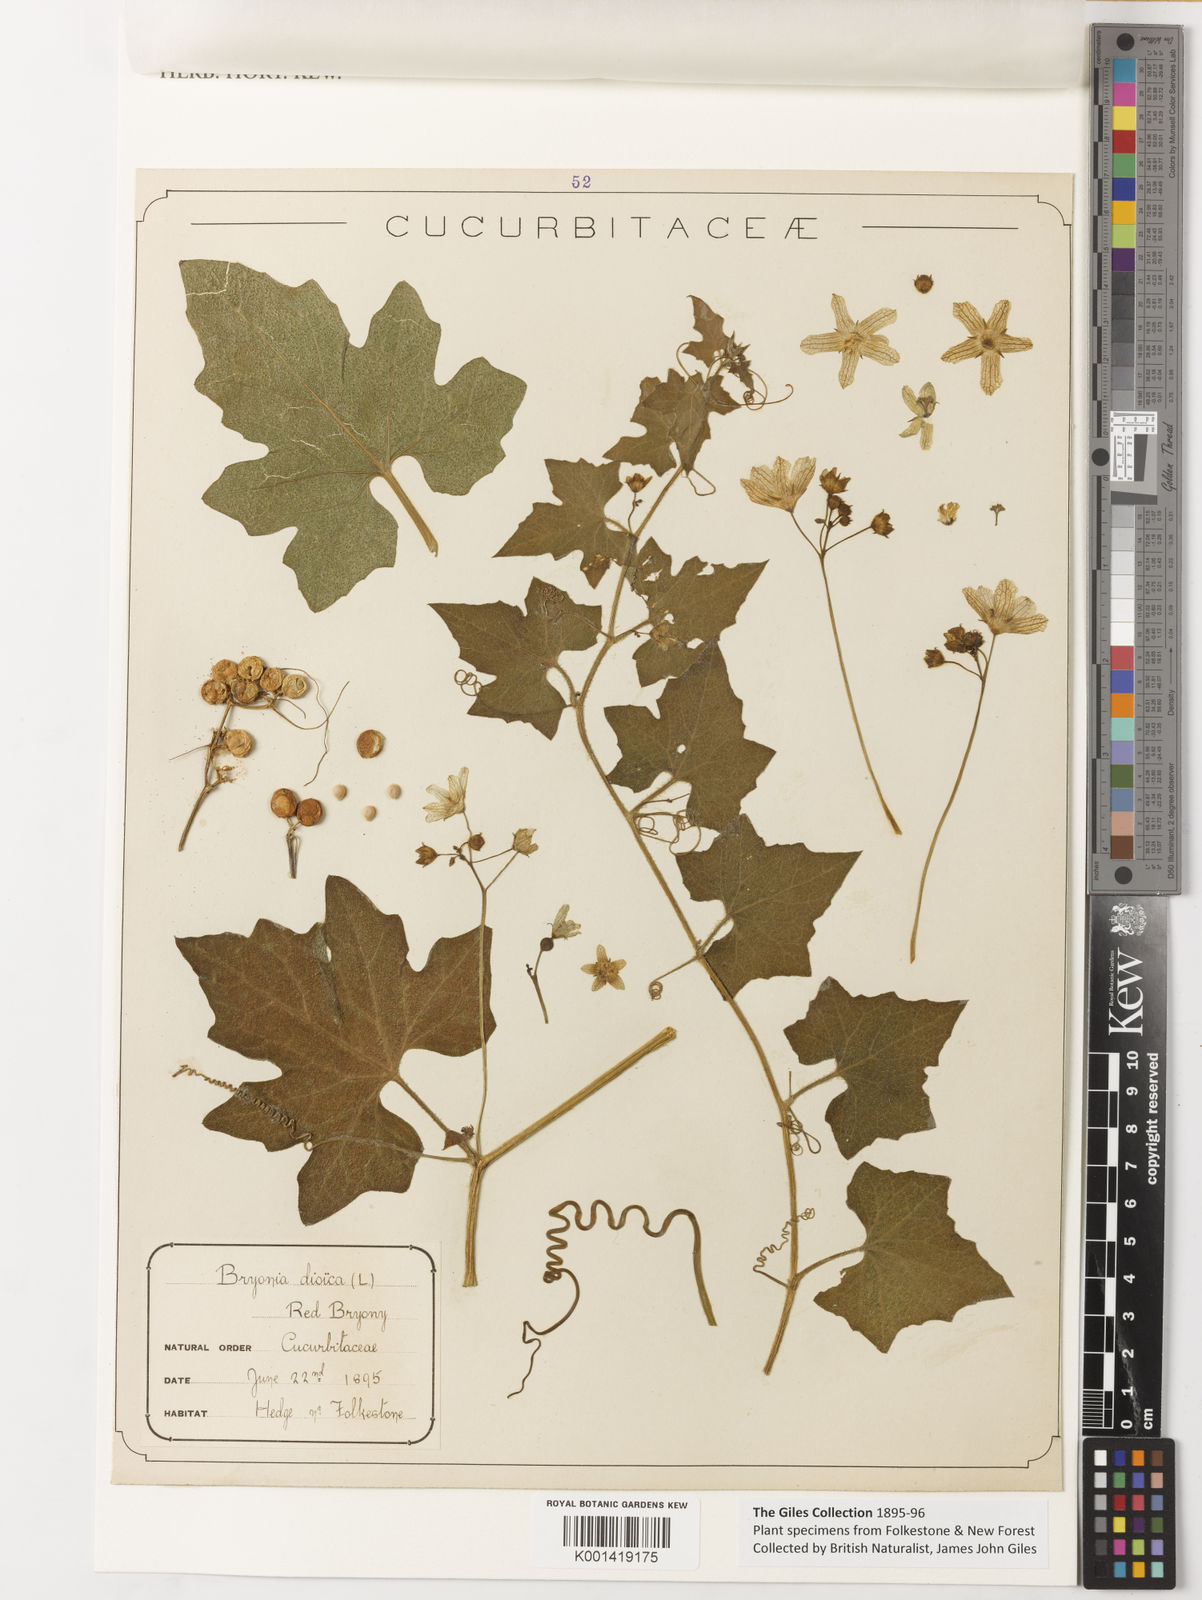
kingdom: Plantae
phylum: Tracheophyta
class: Magnoliopsida
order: Cucurbitales
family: Cucurbitaceae
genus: Bryonia
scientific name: Bryonia
